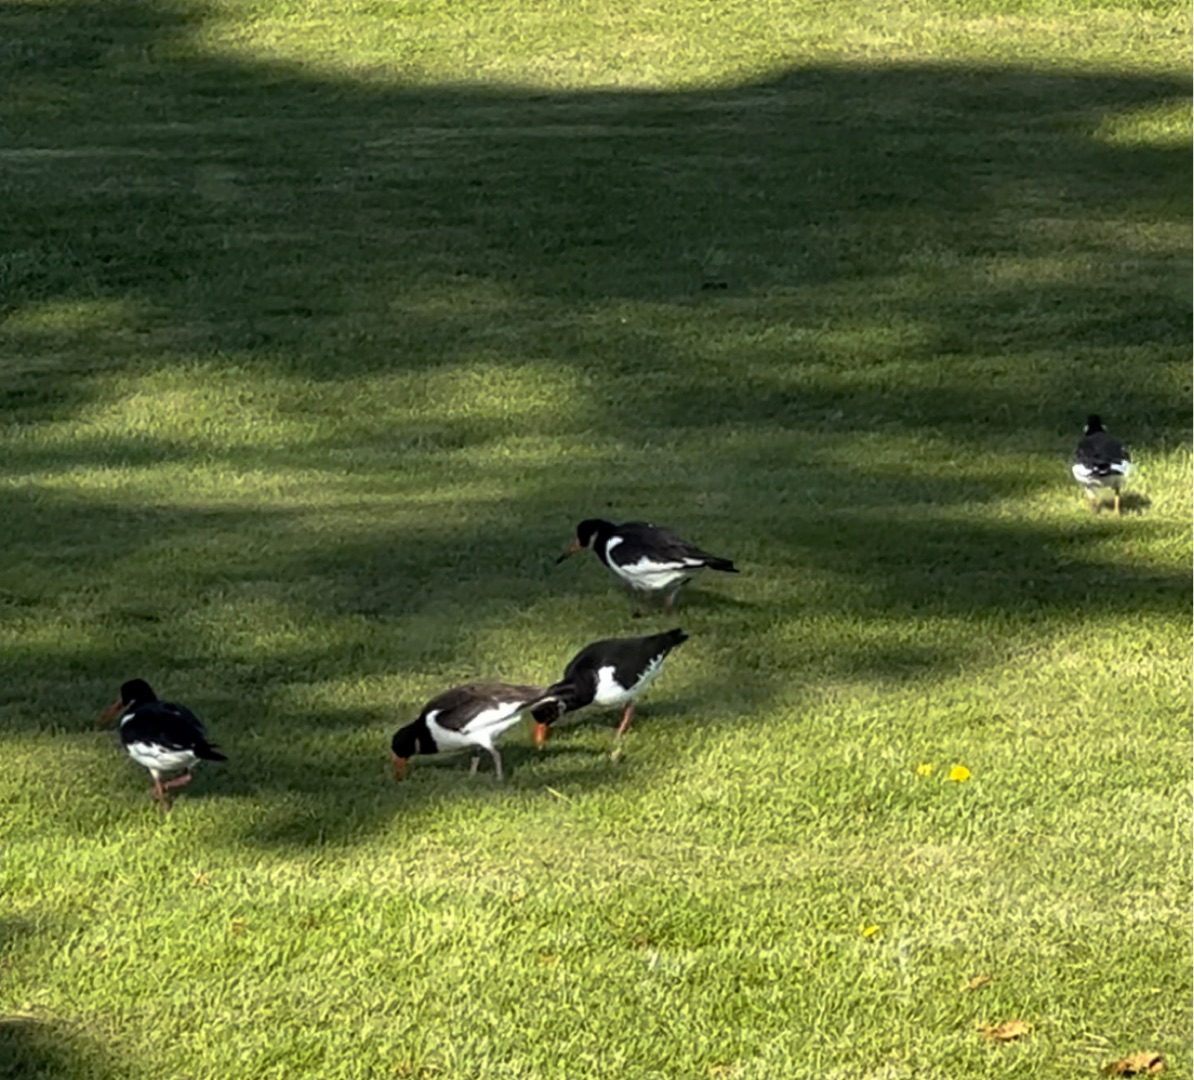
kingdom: Animalia
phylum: Chordata
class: Aves
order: Charadriiformes
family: Haematopodidae
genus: Haematopus
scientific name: Haematopus ostralegus
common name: Strandskade
